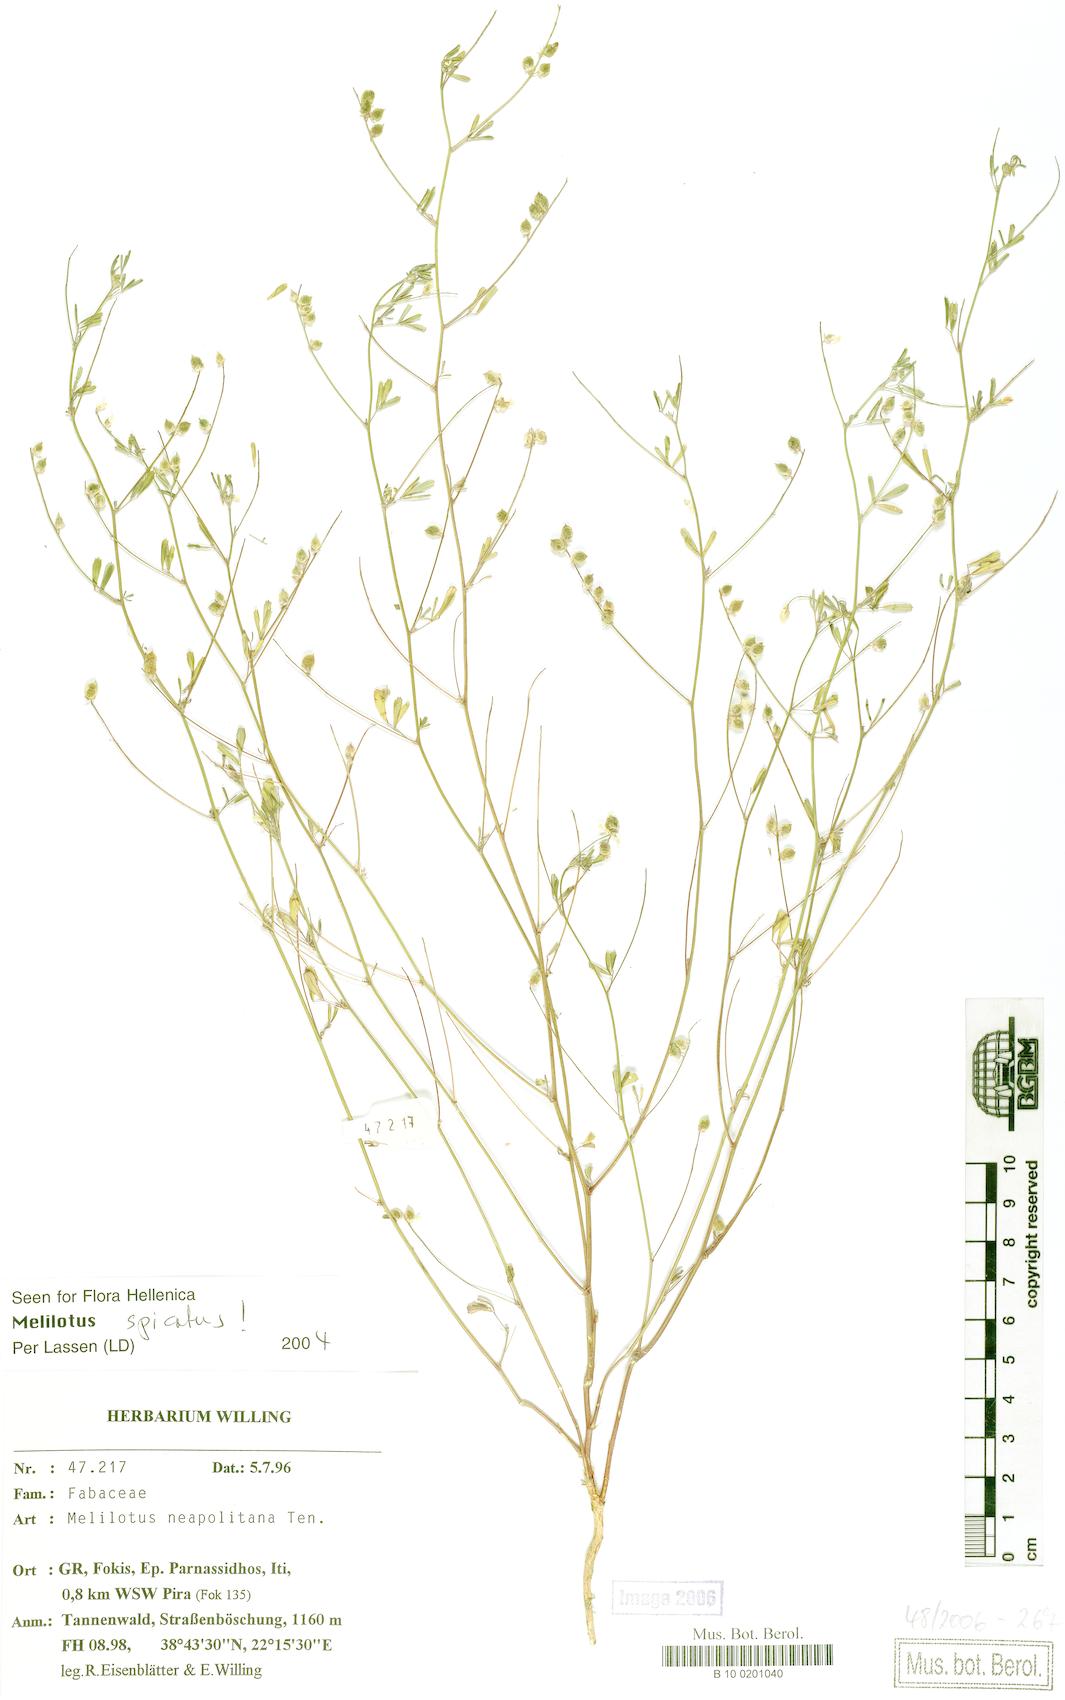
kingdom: Plantae
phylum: Tracheophyta
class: Magnoliopsida
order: Fabales
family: Fabaceae
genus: Melilotus
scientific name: Melilotus neapolitanus
